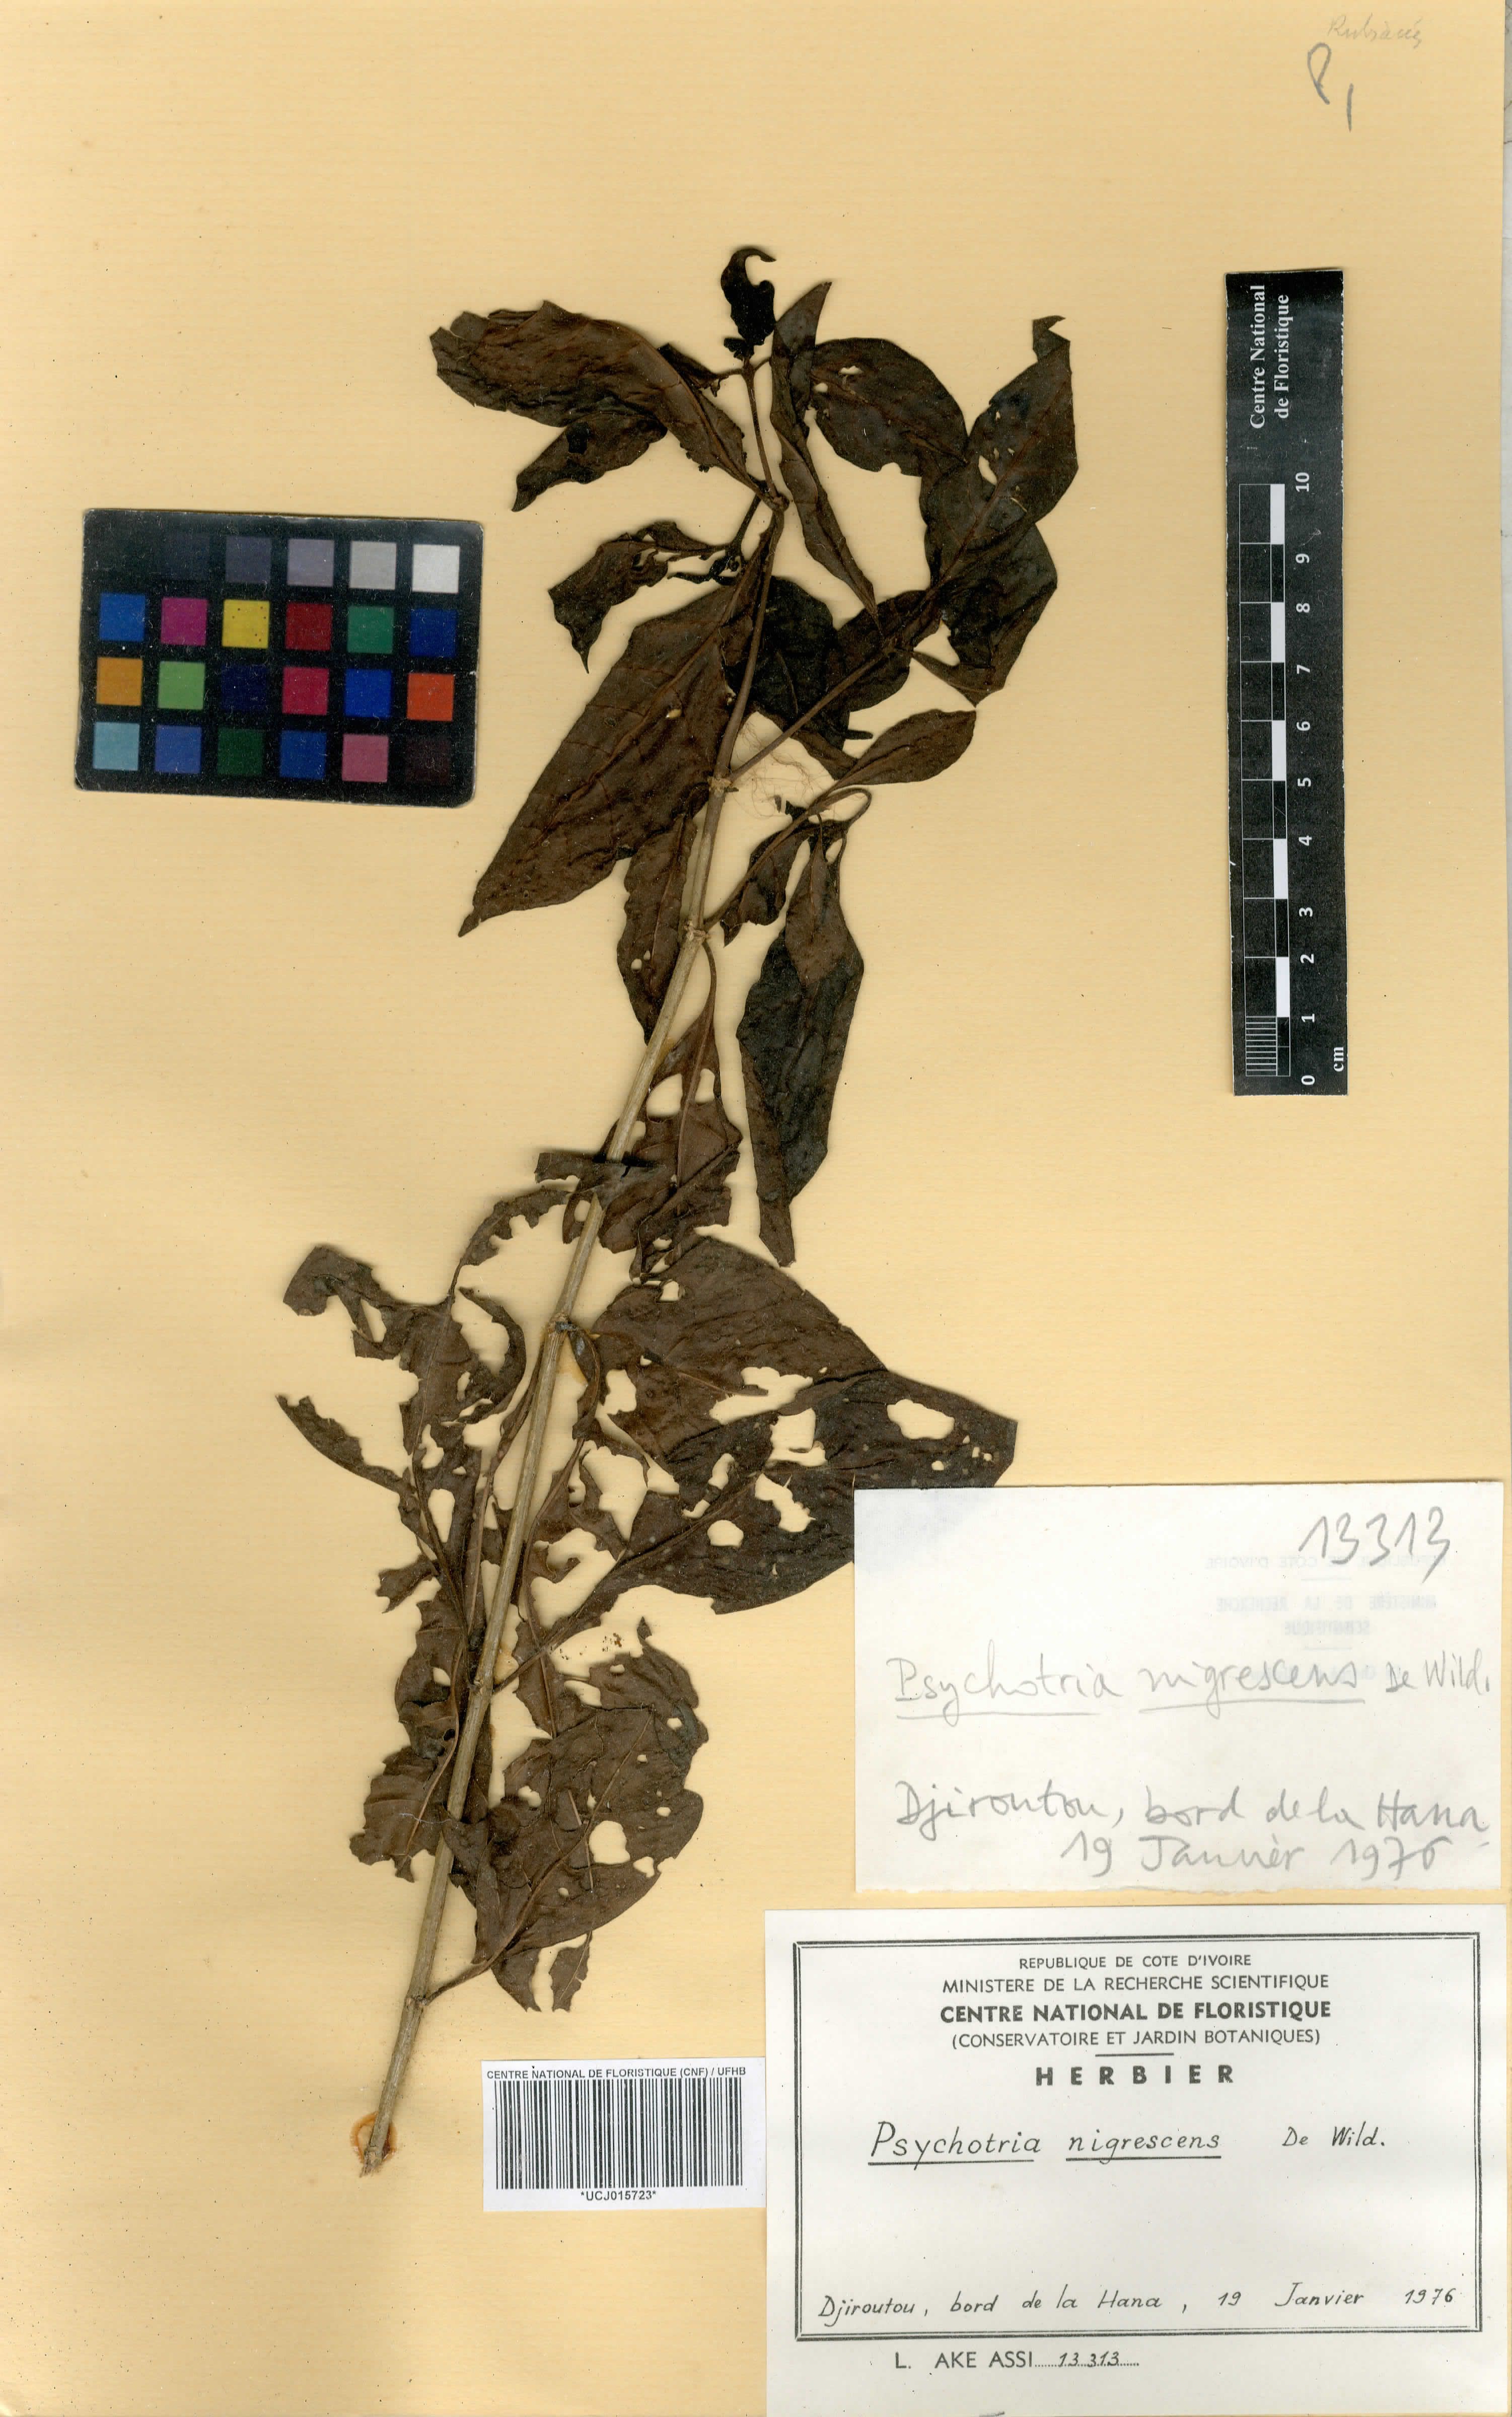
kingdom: Plantae
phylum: Tracheophyta
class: Magnoliopsida
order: Gentianales
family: Rubiaceae
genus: Psychotria
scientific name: Psychotria nigrescens
